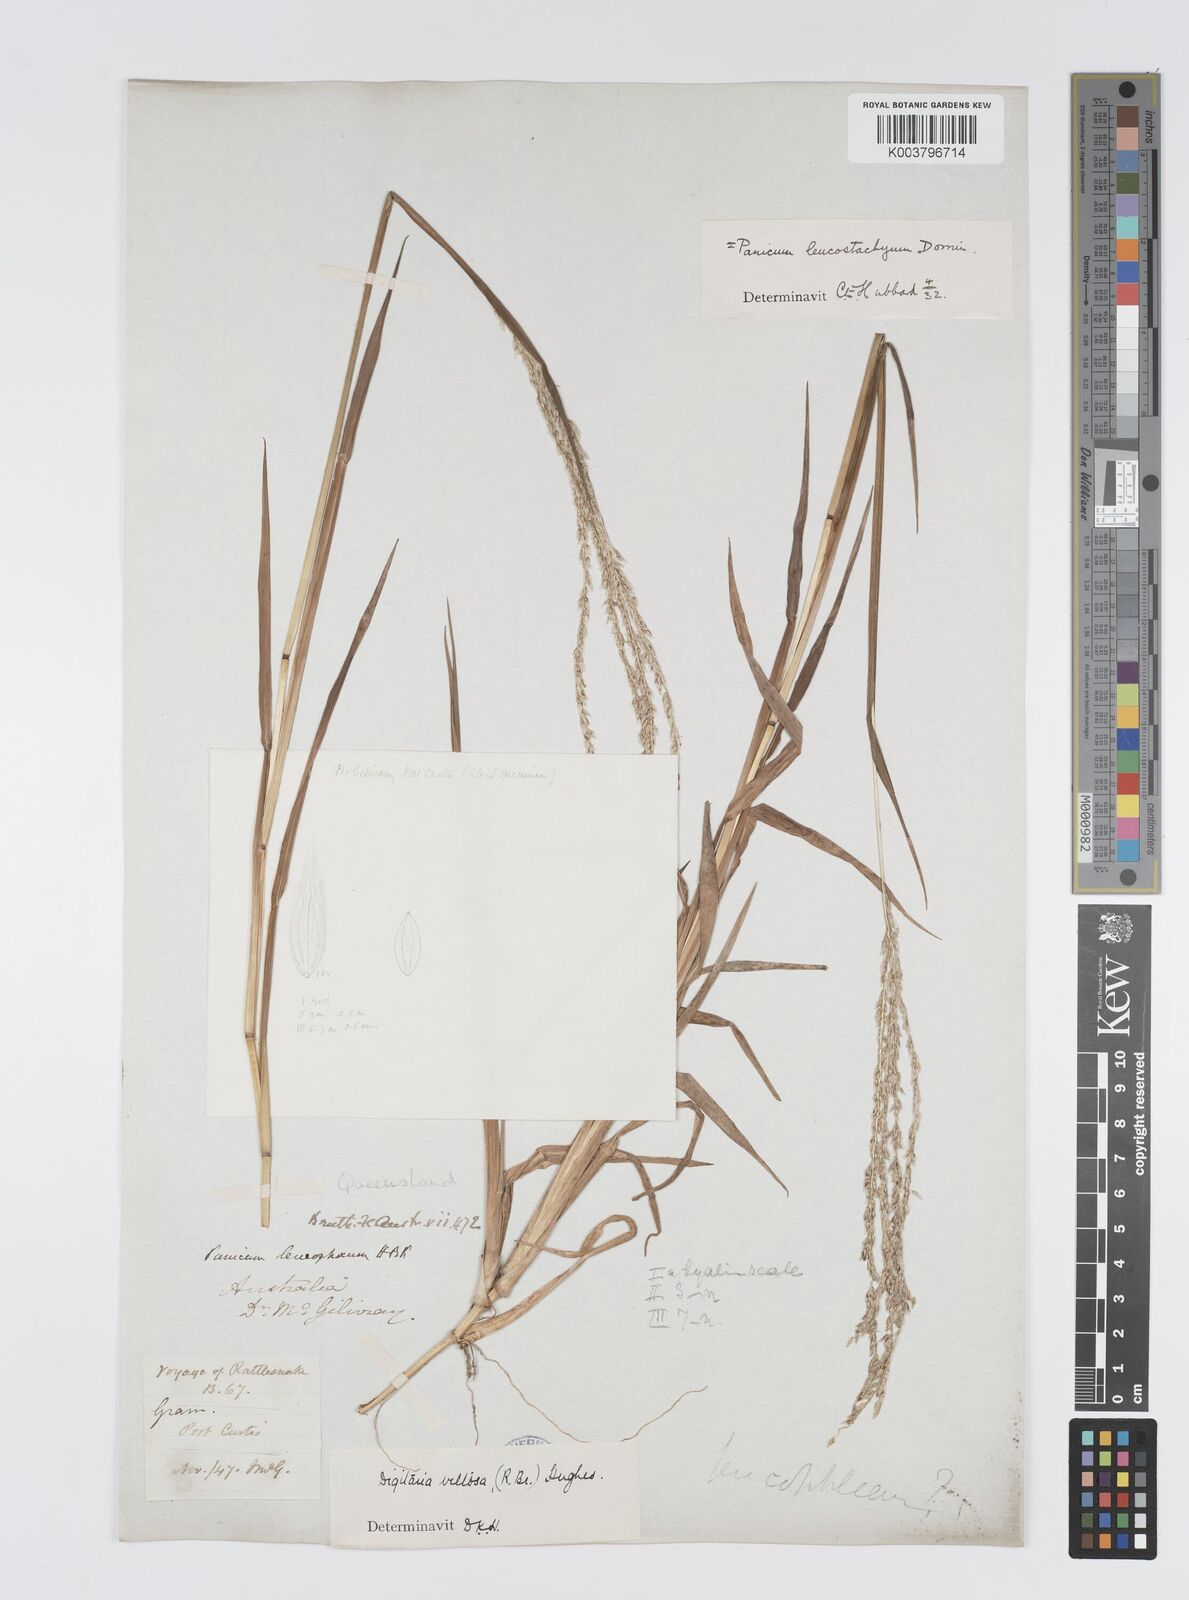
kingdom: Plantae
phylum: Tracheophyta
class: Liliopsida
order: Poales
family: Poaceae
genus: Digitaria
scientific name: Digitaria leucostachya
